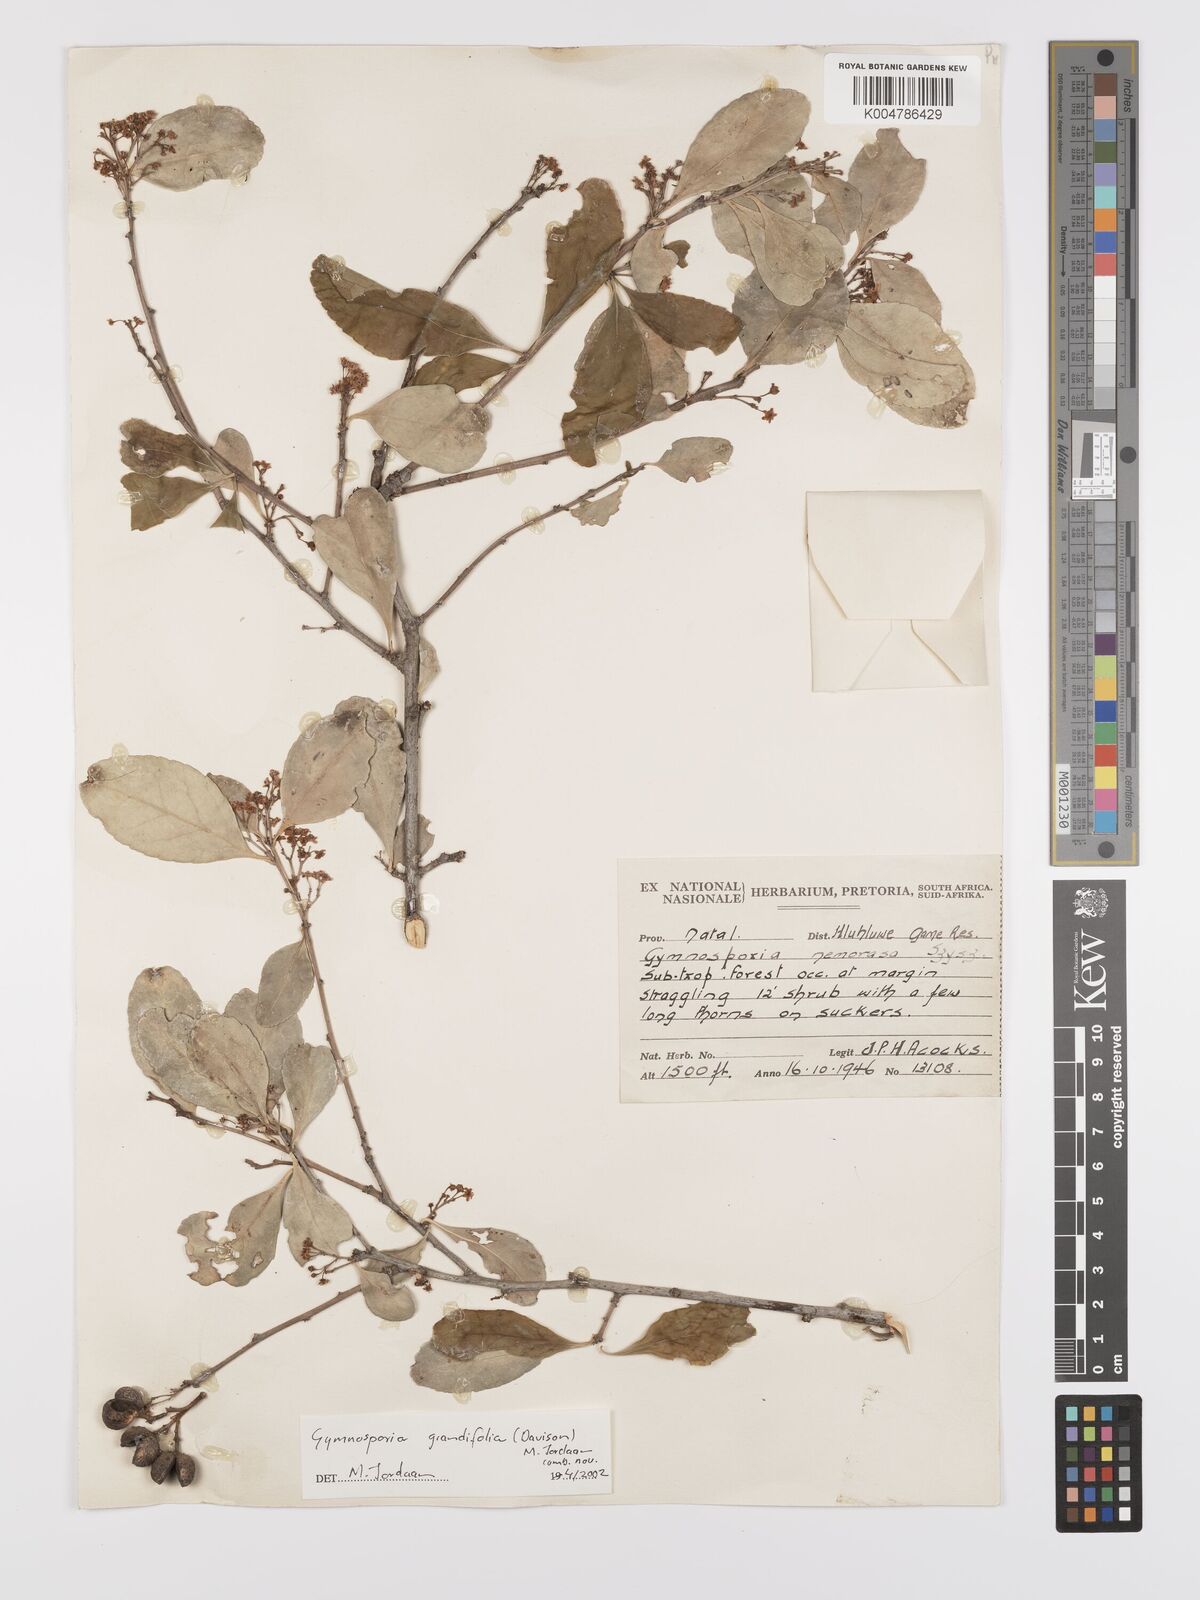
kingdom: Plantae
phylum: Tracheophyta
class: Magnoliopsida
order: Celastrales
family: Celastraceae
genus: Gymnosporia
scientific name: Gymnosporia grandifolia
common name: Large-fruited forest spike-thorn
